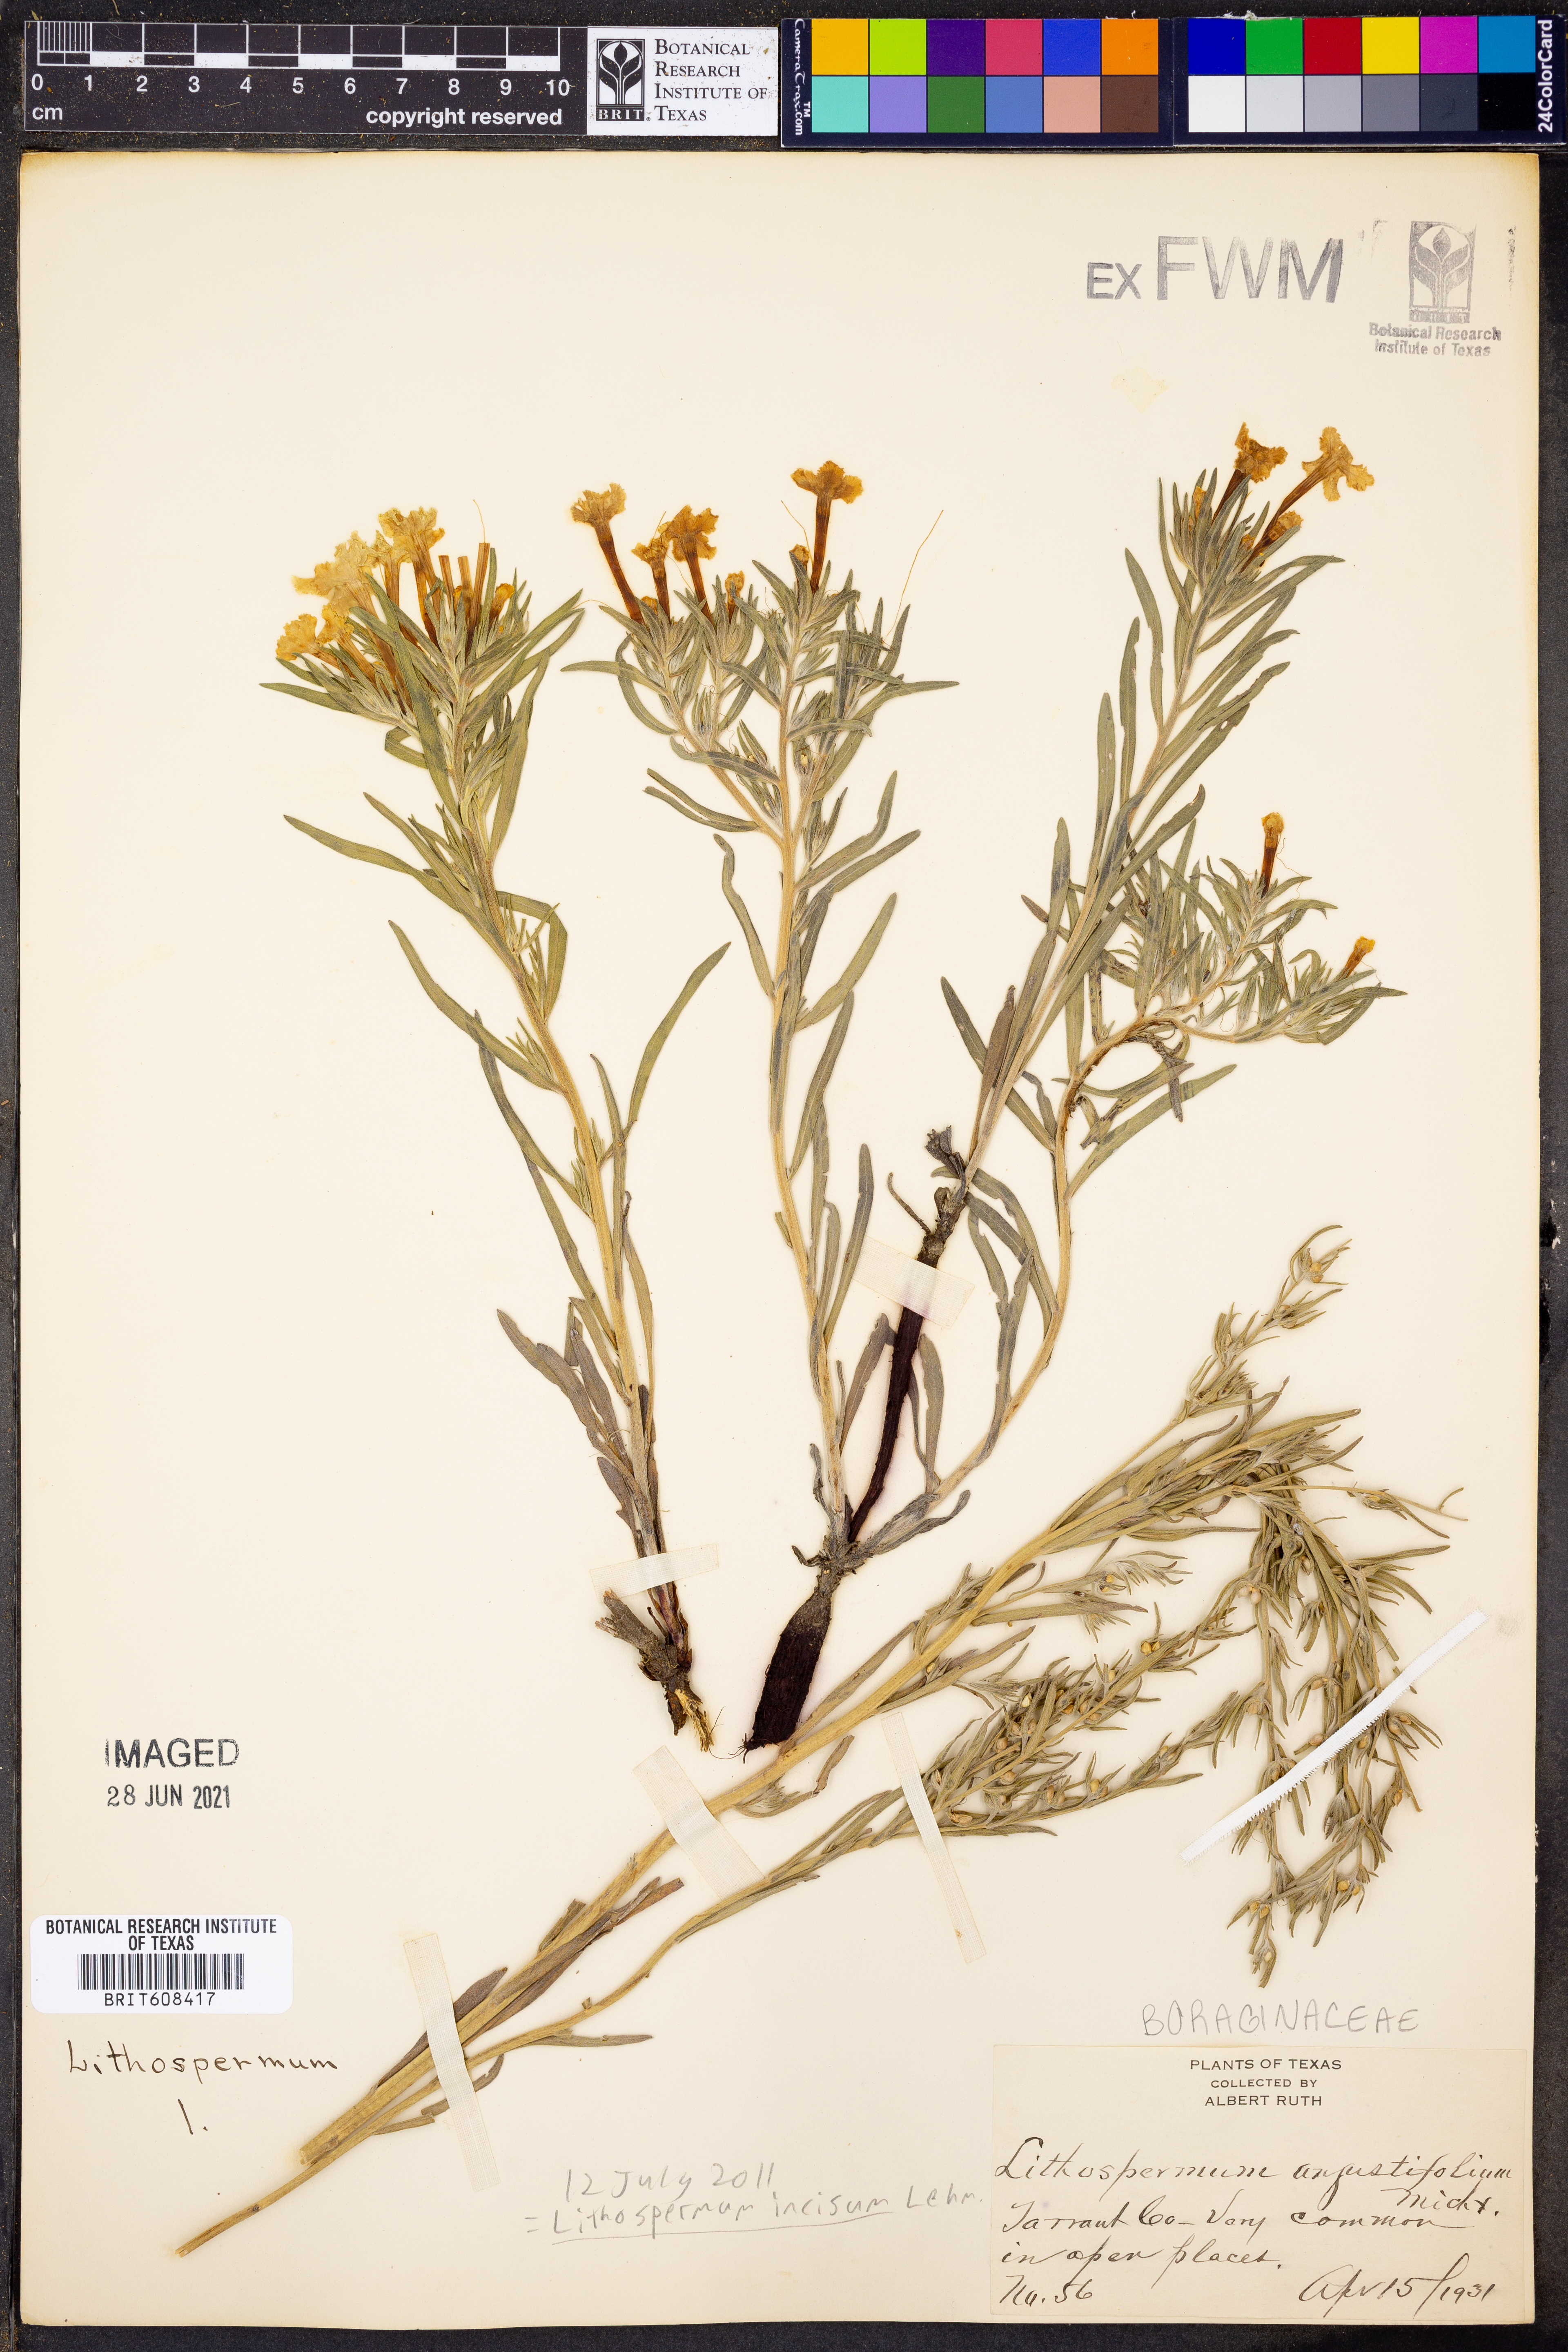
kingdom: Plantae
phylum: Tracheophyta
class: Magnoliopsida
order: Boraginales
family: Boraginaceae
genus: Lithospermum
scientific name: Lithospermum incisum
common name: Fringed gromwell
